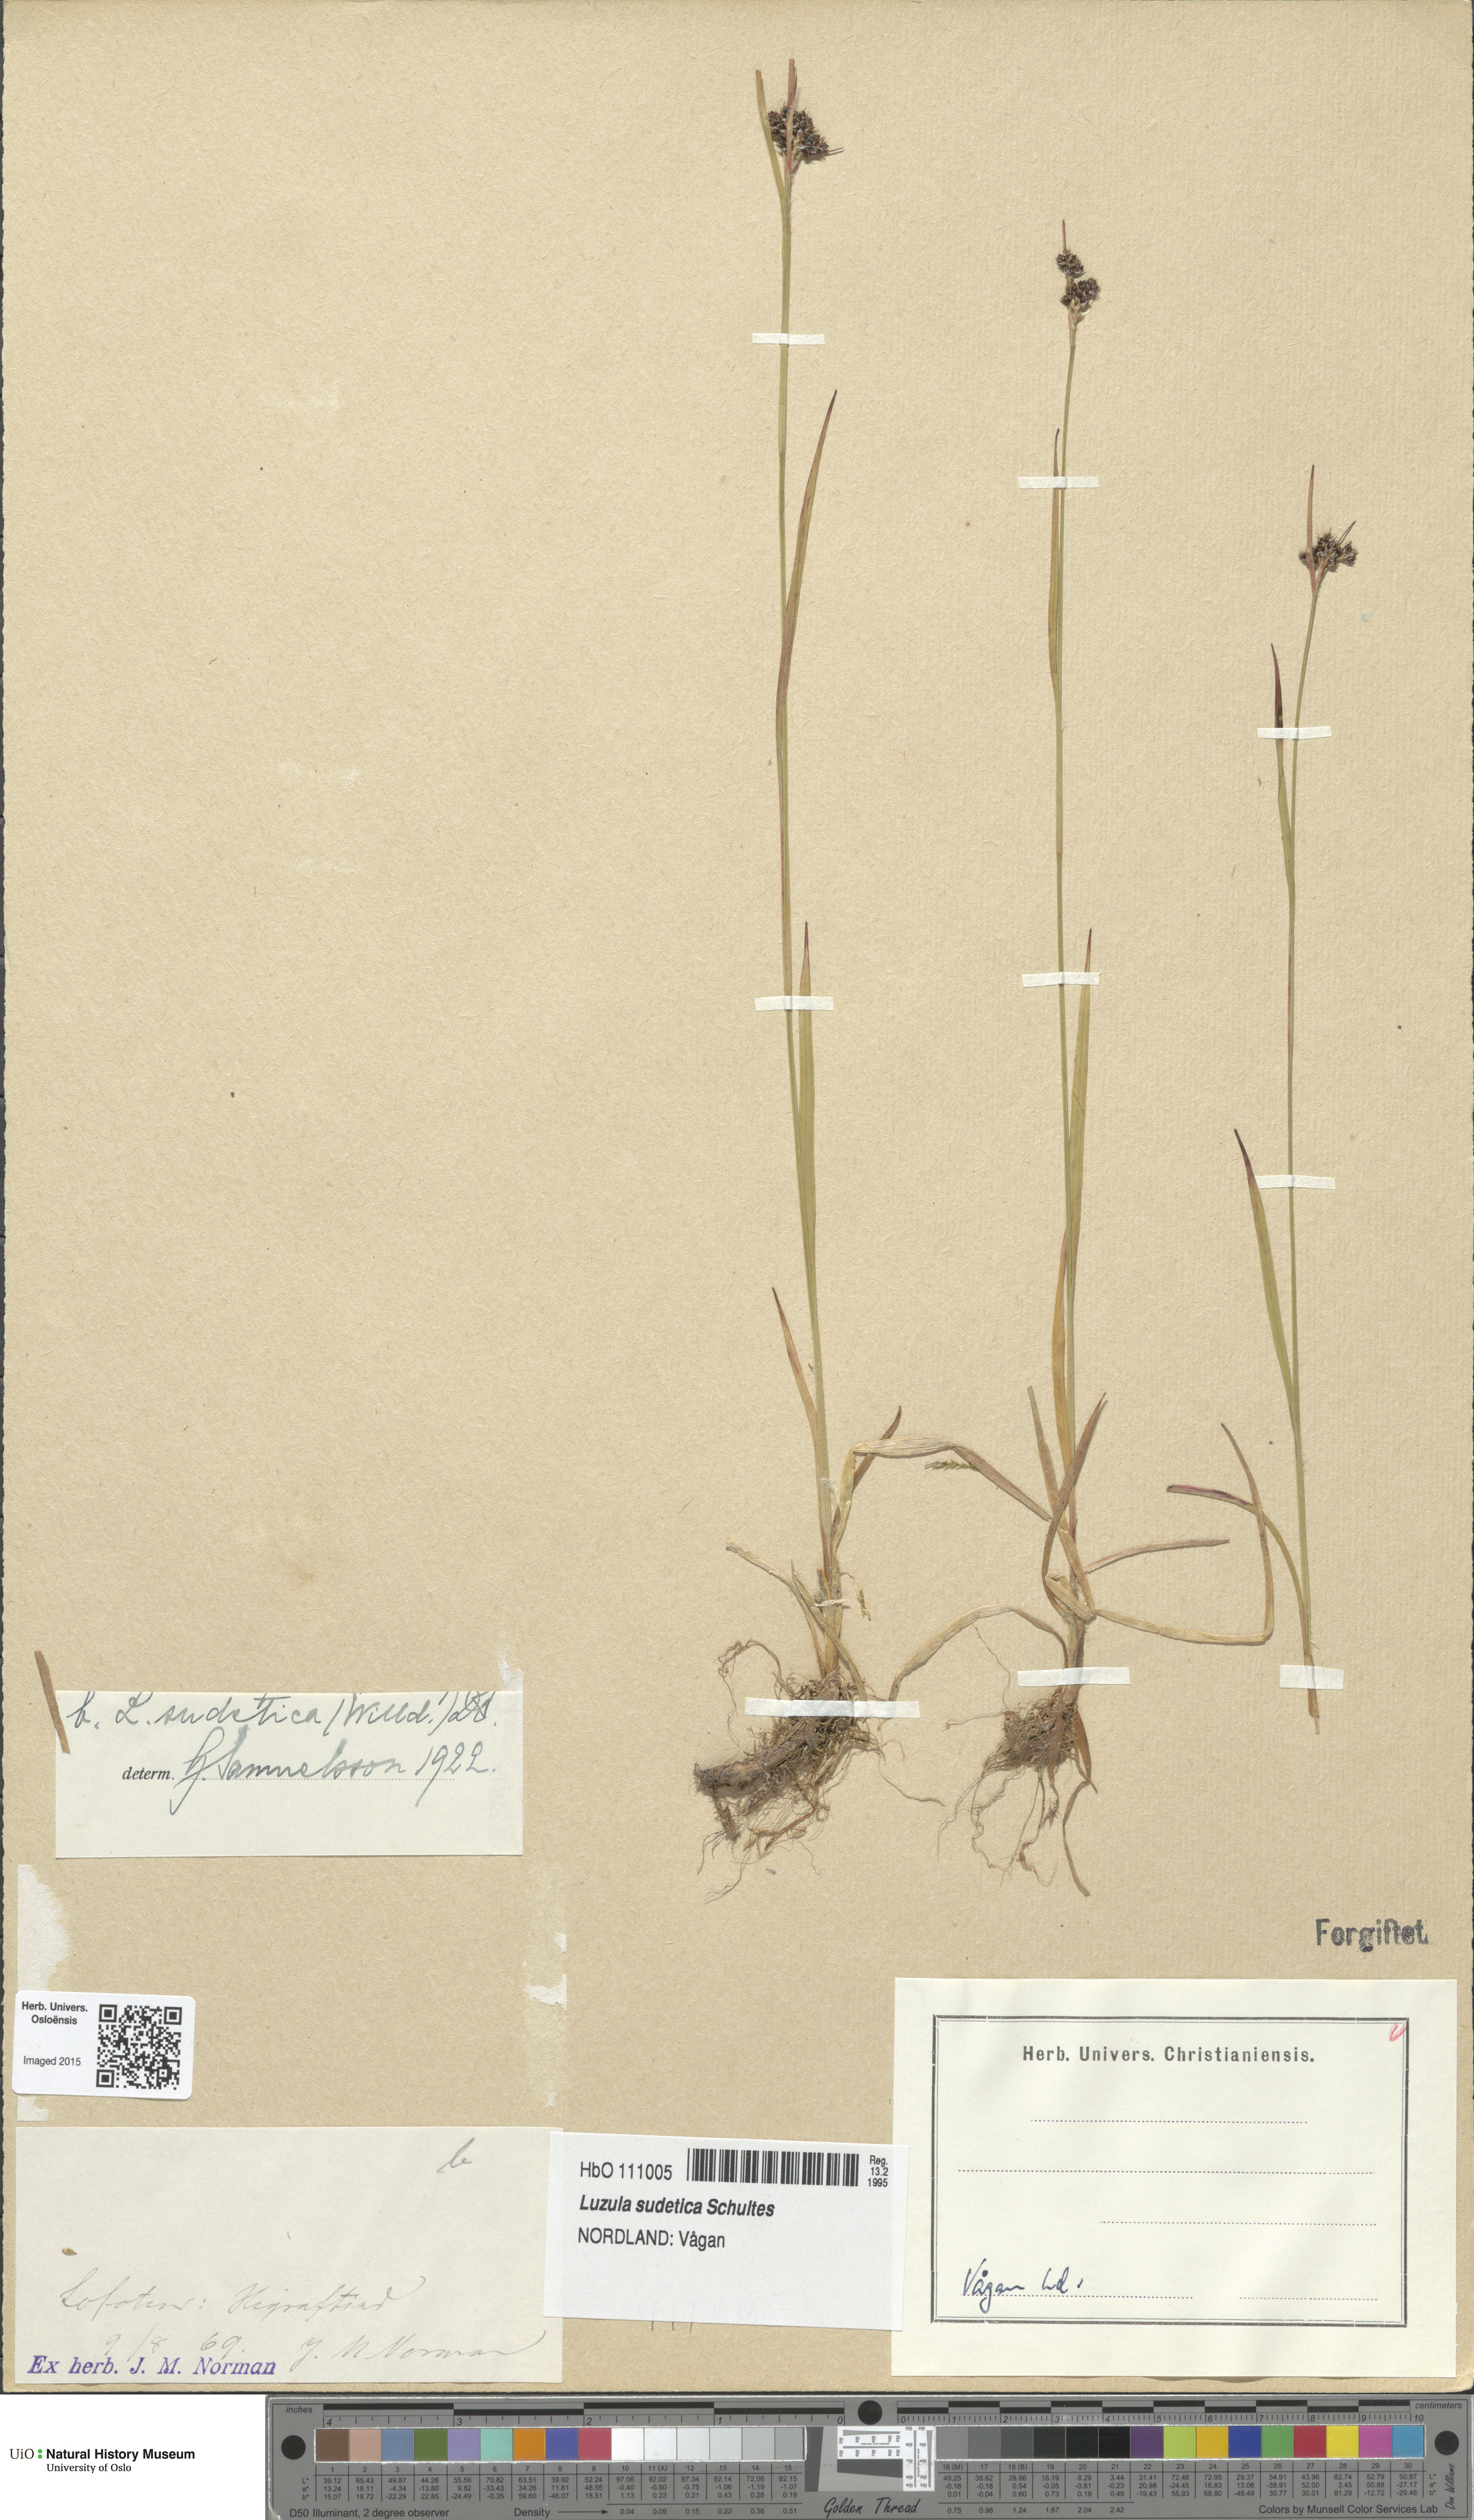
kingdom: Plantae
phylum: Tracheophyta
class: Liliopsida
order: Poales
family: Juncaceae
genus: Luzula
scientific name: Luzula sudetica
